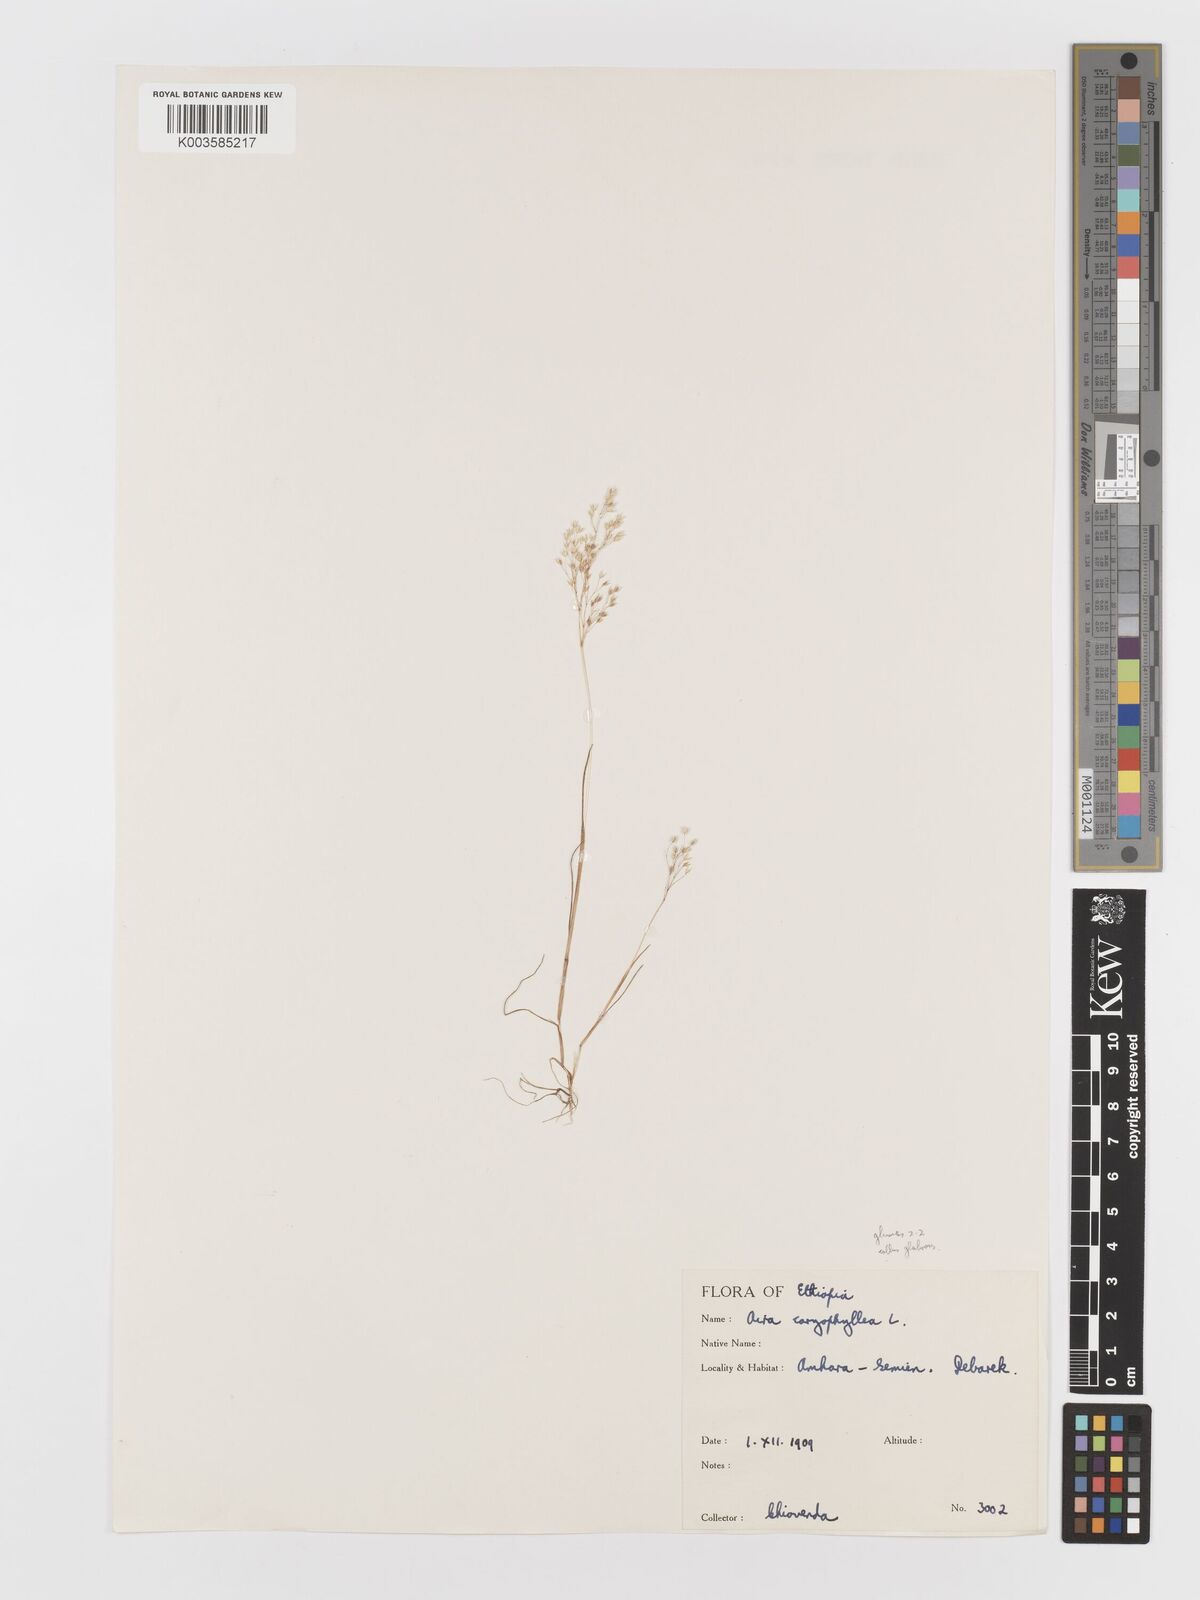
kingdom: Plantae
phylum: Tracheophyta
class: Liliopsida
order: Poales
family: Poaceae
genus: Aira
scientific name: Aira caryophyllea
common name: Silver hairgrass
